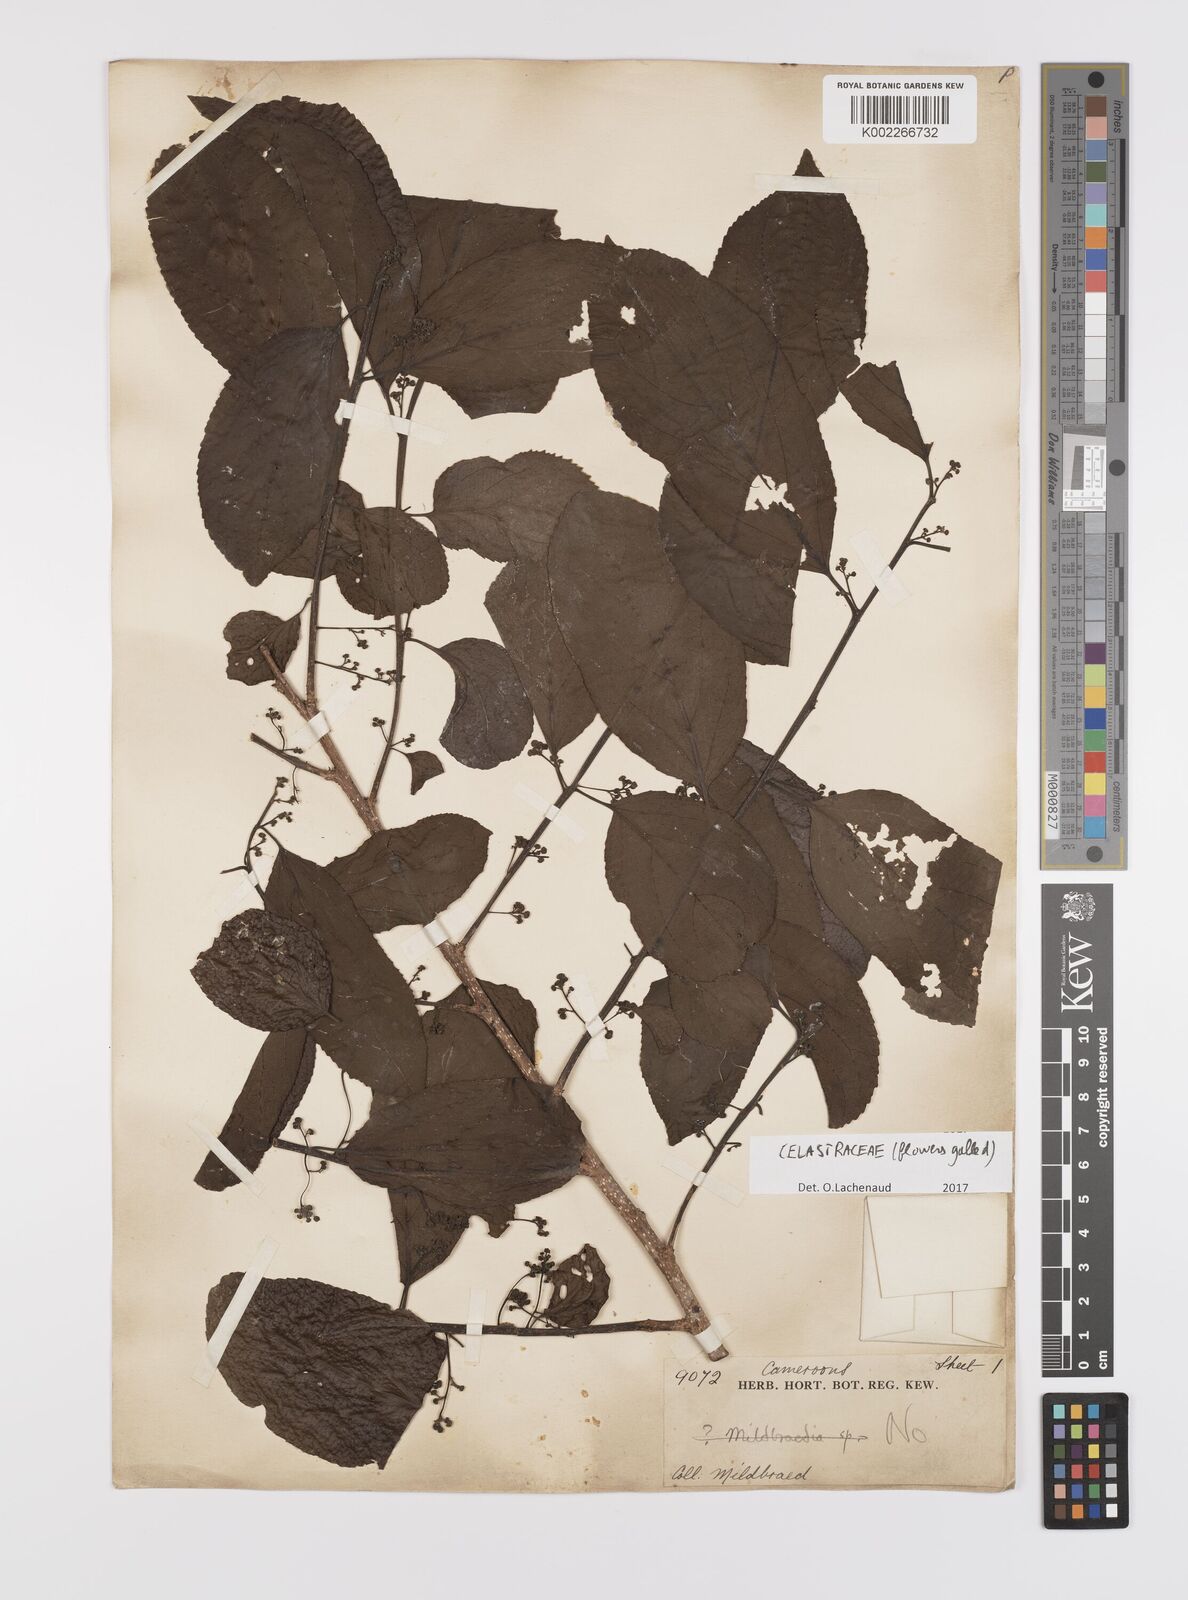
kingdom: Plantae
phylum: Tracheophyta
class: Magnoliopsida
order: Celastrales
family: Celastraceae
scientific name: Celastraceae
